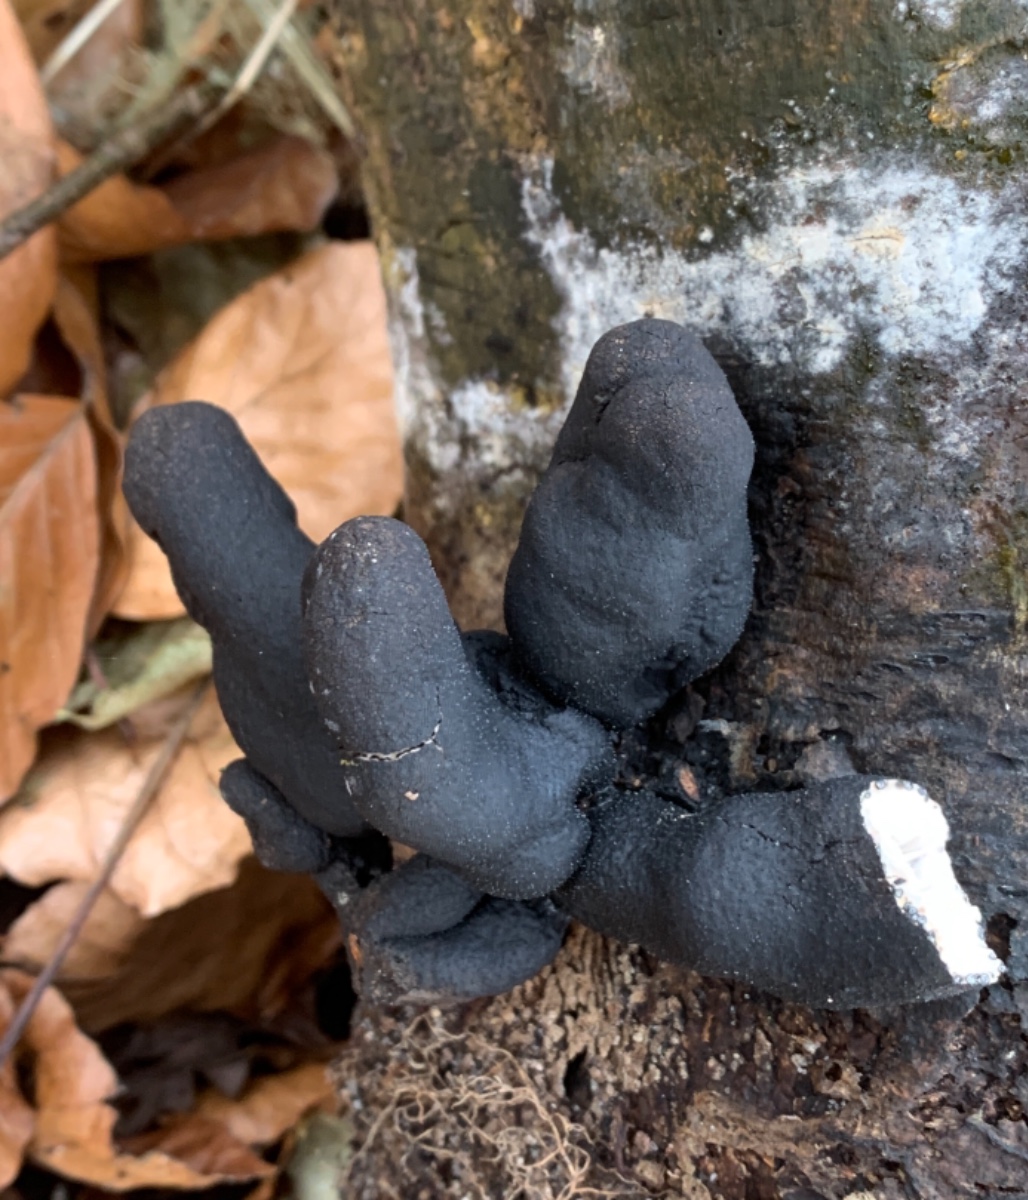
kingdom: Fungi
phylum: Ascomycota
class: Sordariomycetes
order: Xylariales
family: Xylariaceae
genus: Xylaria
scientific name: Xylaria polymorpha
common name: kølle-stødsvamp
